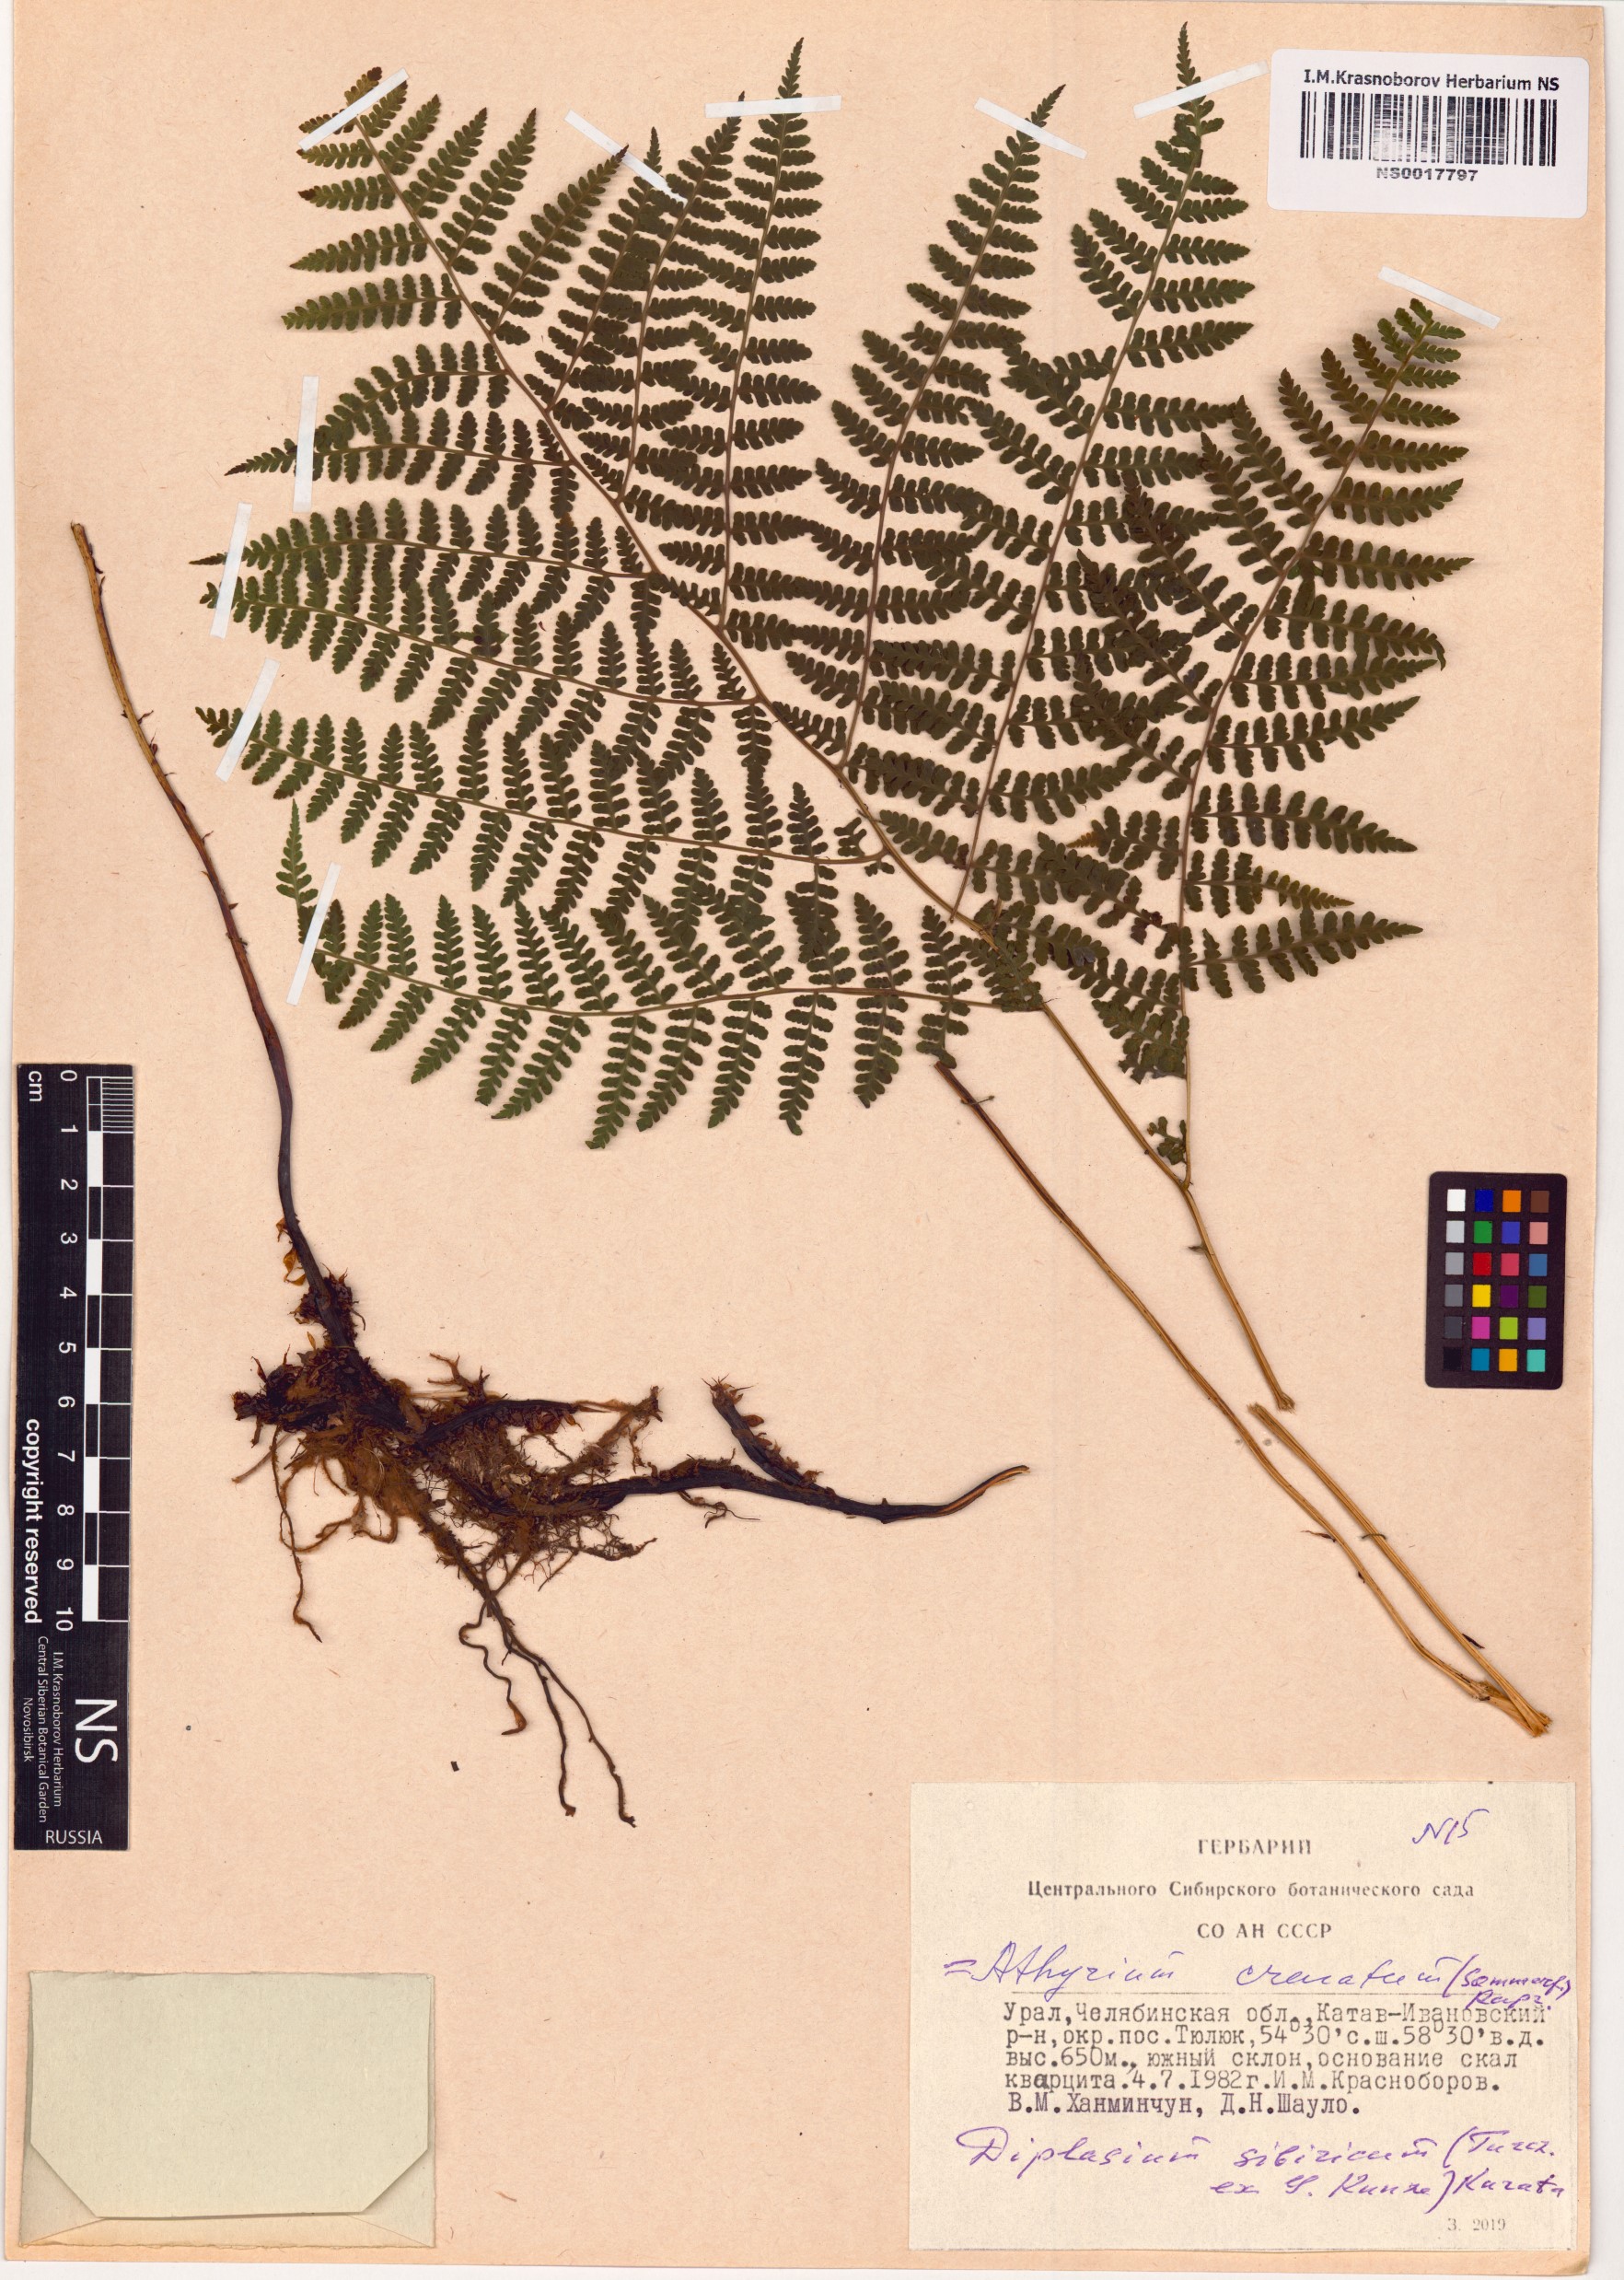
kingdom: Plantae
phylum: Tracheophyta
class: Polypodiopsida
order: Polypodiales
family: Athyriaceae
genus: Diplazium
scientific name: Diplazium sibiricum
